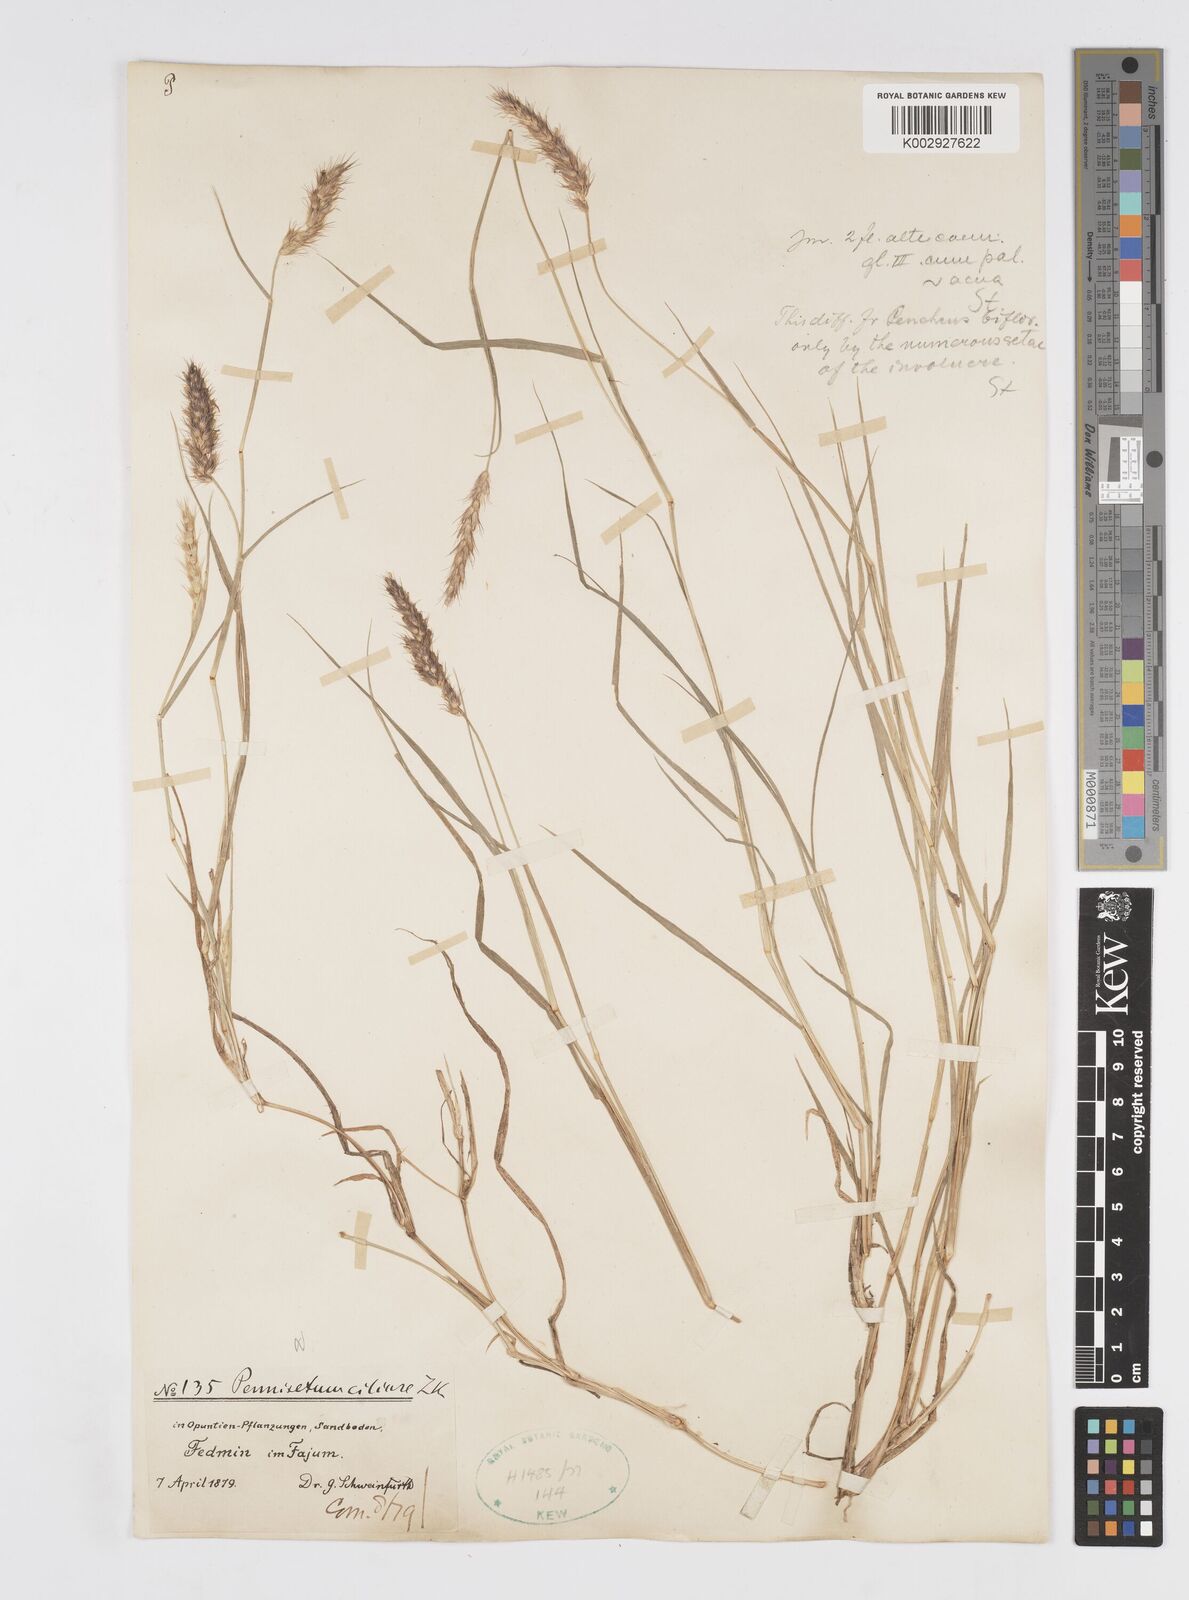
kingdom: Plantae
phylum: Tracheophyta
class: Liliopsida
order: Poales
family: Poaceae
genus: Cenchrus
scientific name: Cenchrus pennisetiformis
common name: Cloncurry
